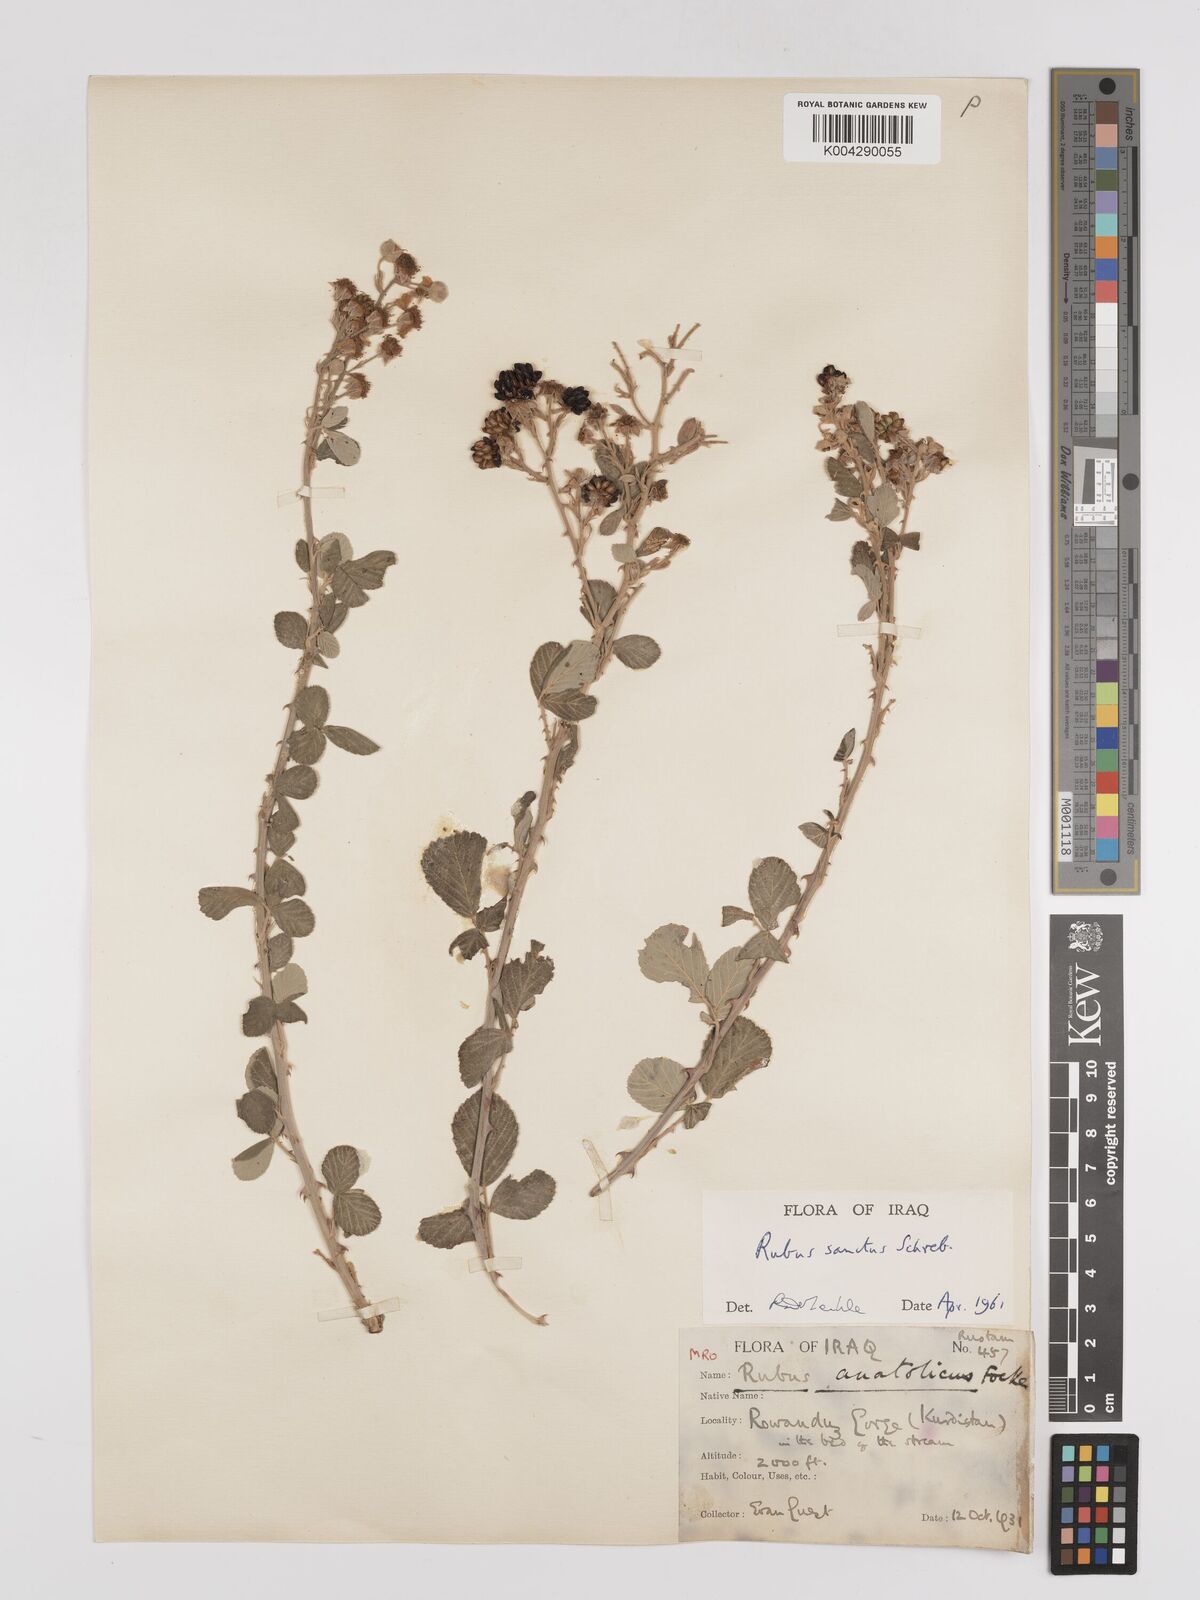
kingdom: Plantae
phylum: Tracheophyta
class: Magnoliopsida
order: Rosales
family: Rosaceae
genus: Rubus
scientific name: Rubus sanctus
